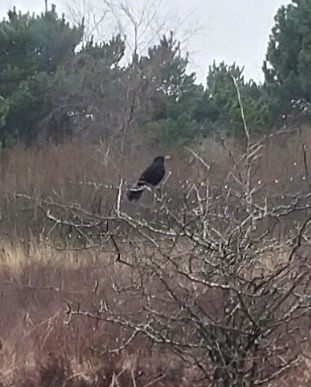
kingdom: Animalia
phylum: Chordata
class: Aves
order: Passeriformes
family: Turdidae
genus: Turdus
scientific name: Turdus merula
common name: Solsort
